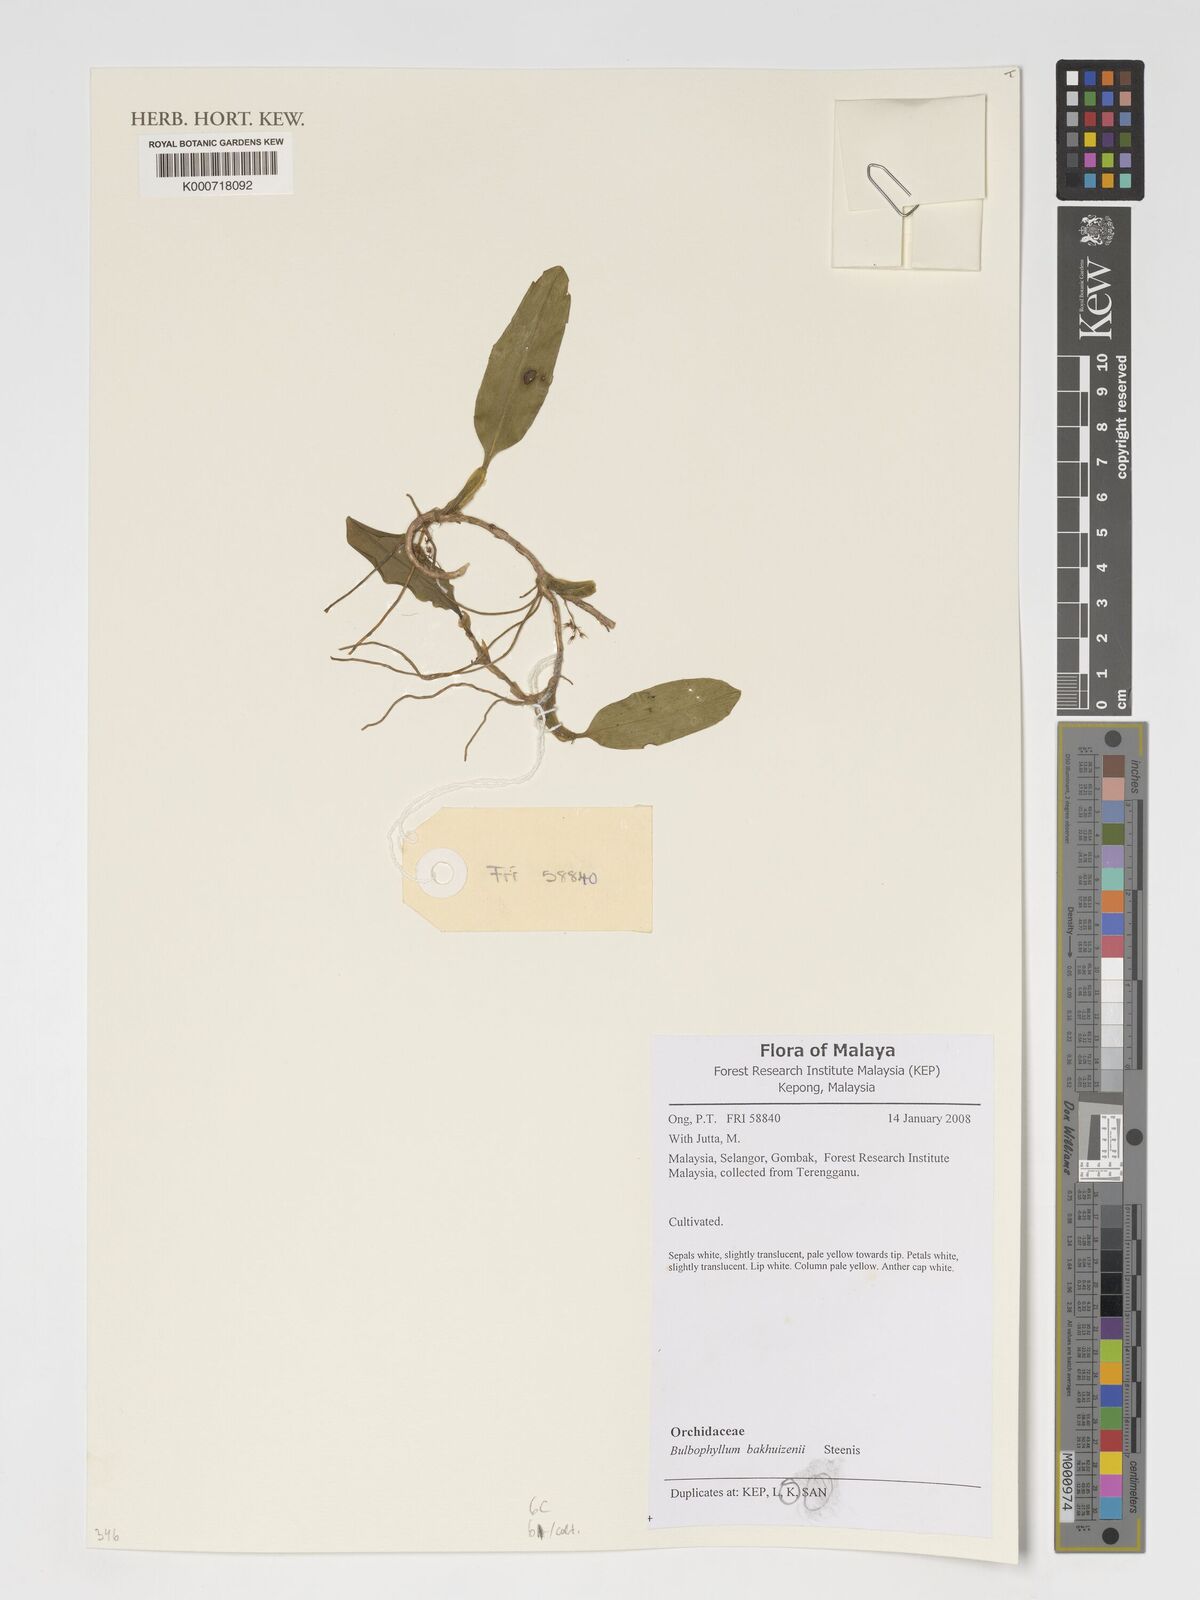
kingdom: Plantae
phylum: Tracheophyta
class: Liliopsida
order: Asparagales
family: Orchidaceae
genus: Bulbophyllum
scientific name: Bulbophyllum longerepens
